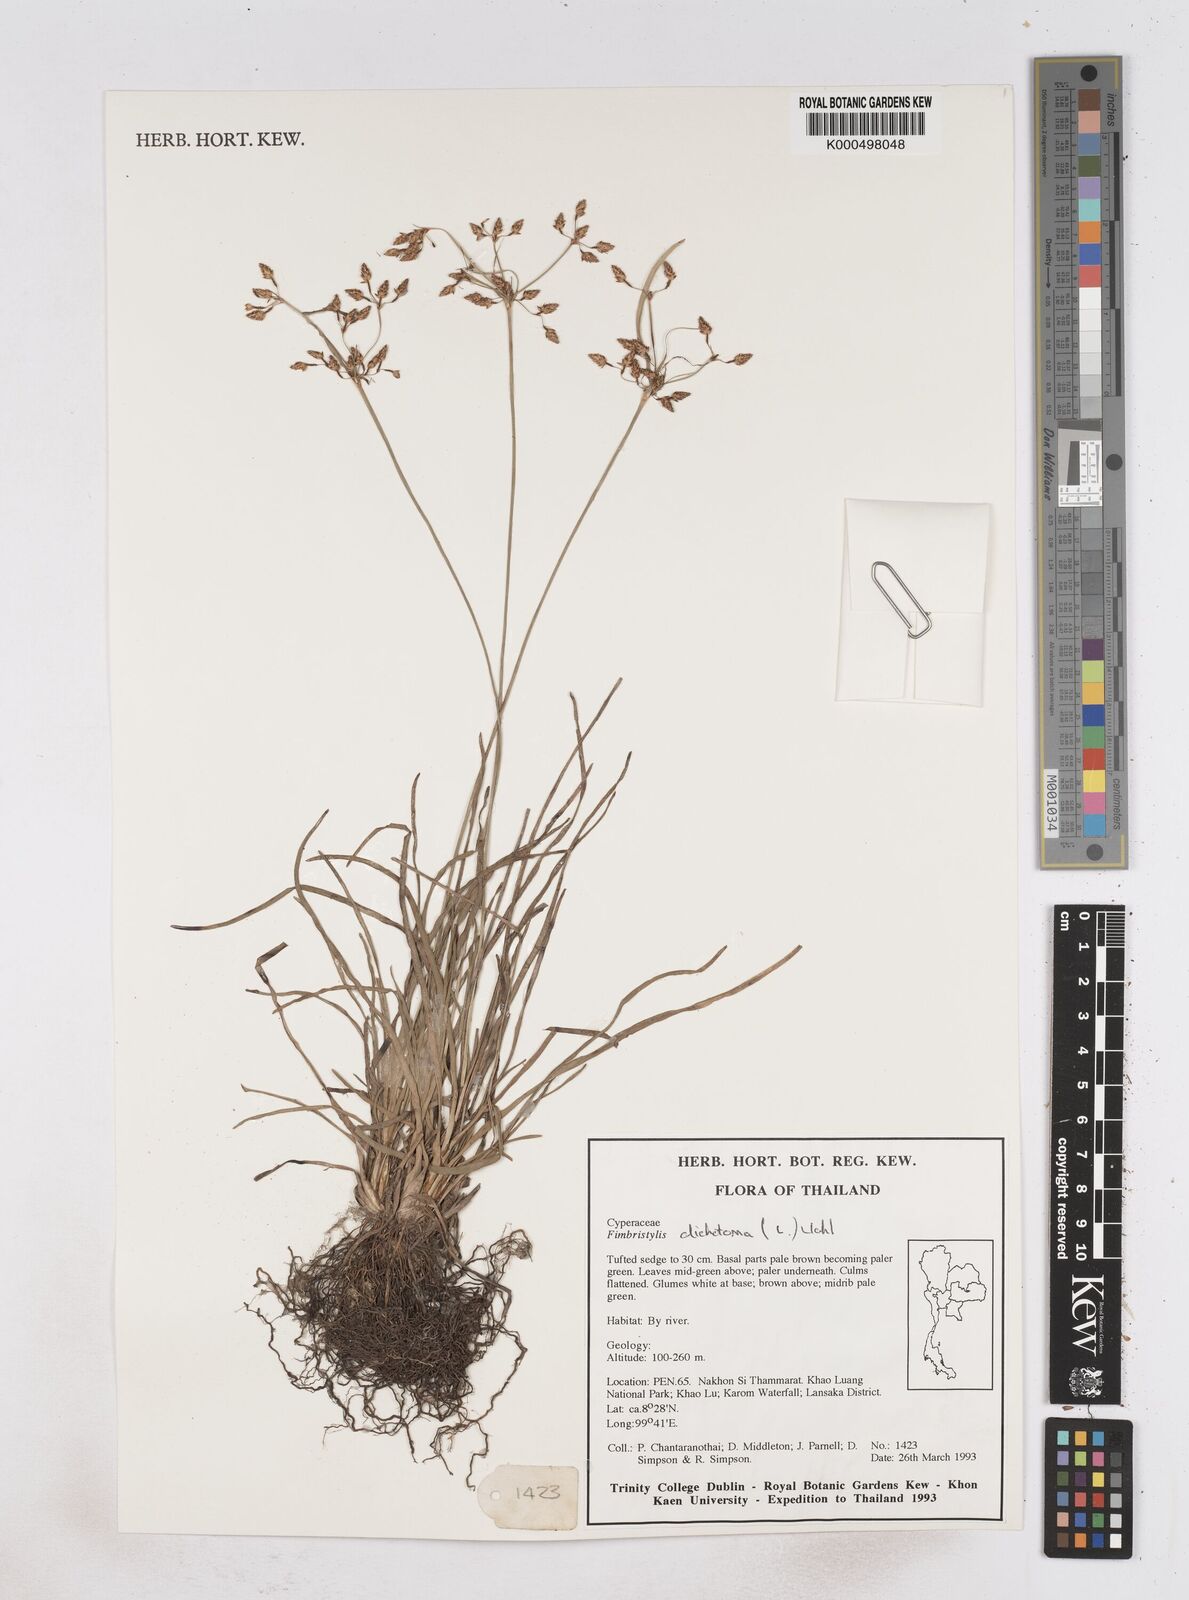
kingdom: Plantae
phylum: Tracheophyta
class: Liliopsida
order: Poales
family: Cyperaceae
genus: Fimbristylis
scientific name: Fimbristylis dichotoma
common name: Forked fimbry
